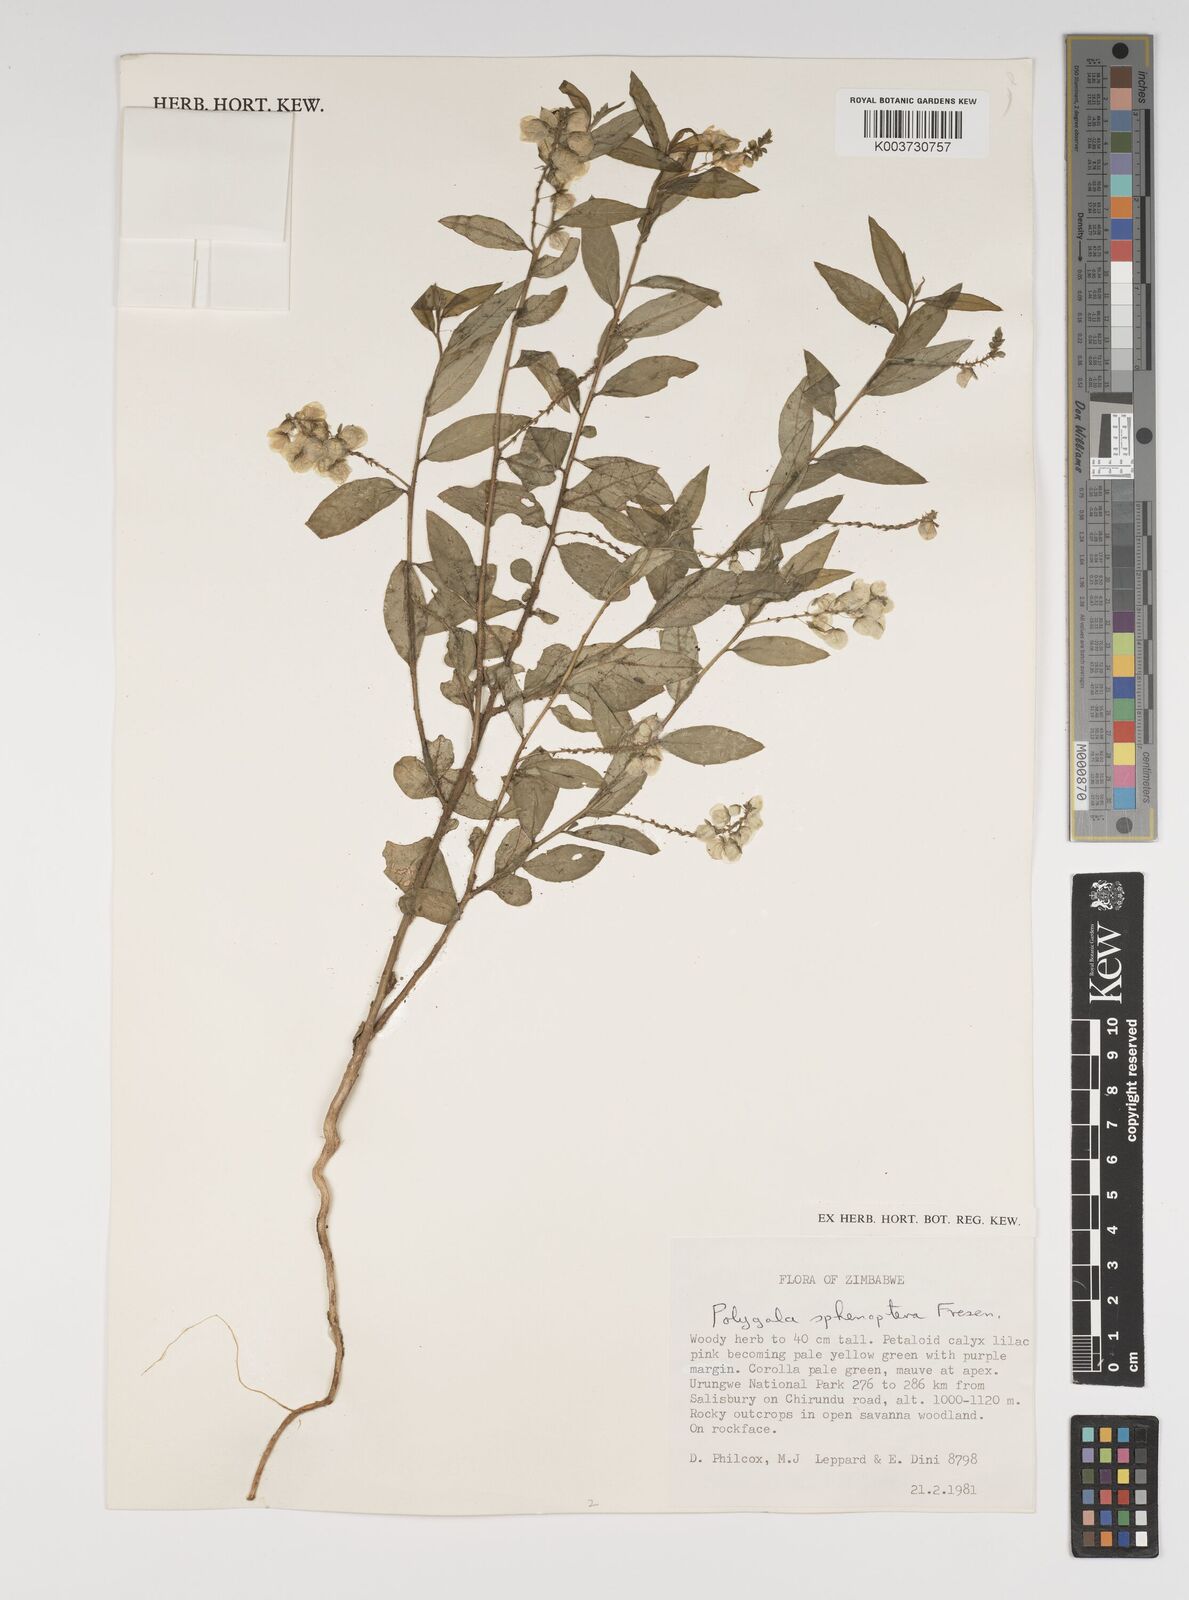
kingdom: Plantae
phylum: Tracheophyta
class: Magnoliopsida
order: Fabales
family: Polygalaceae
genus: Polygala
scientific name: Polygala sphenoptera
